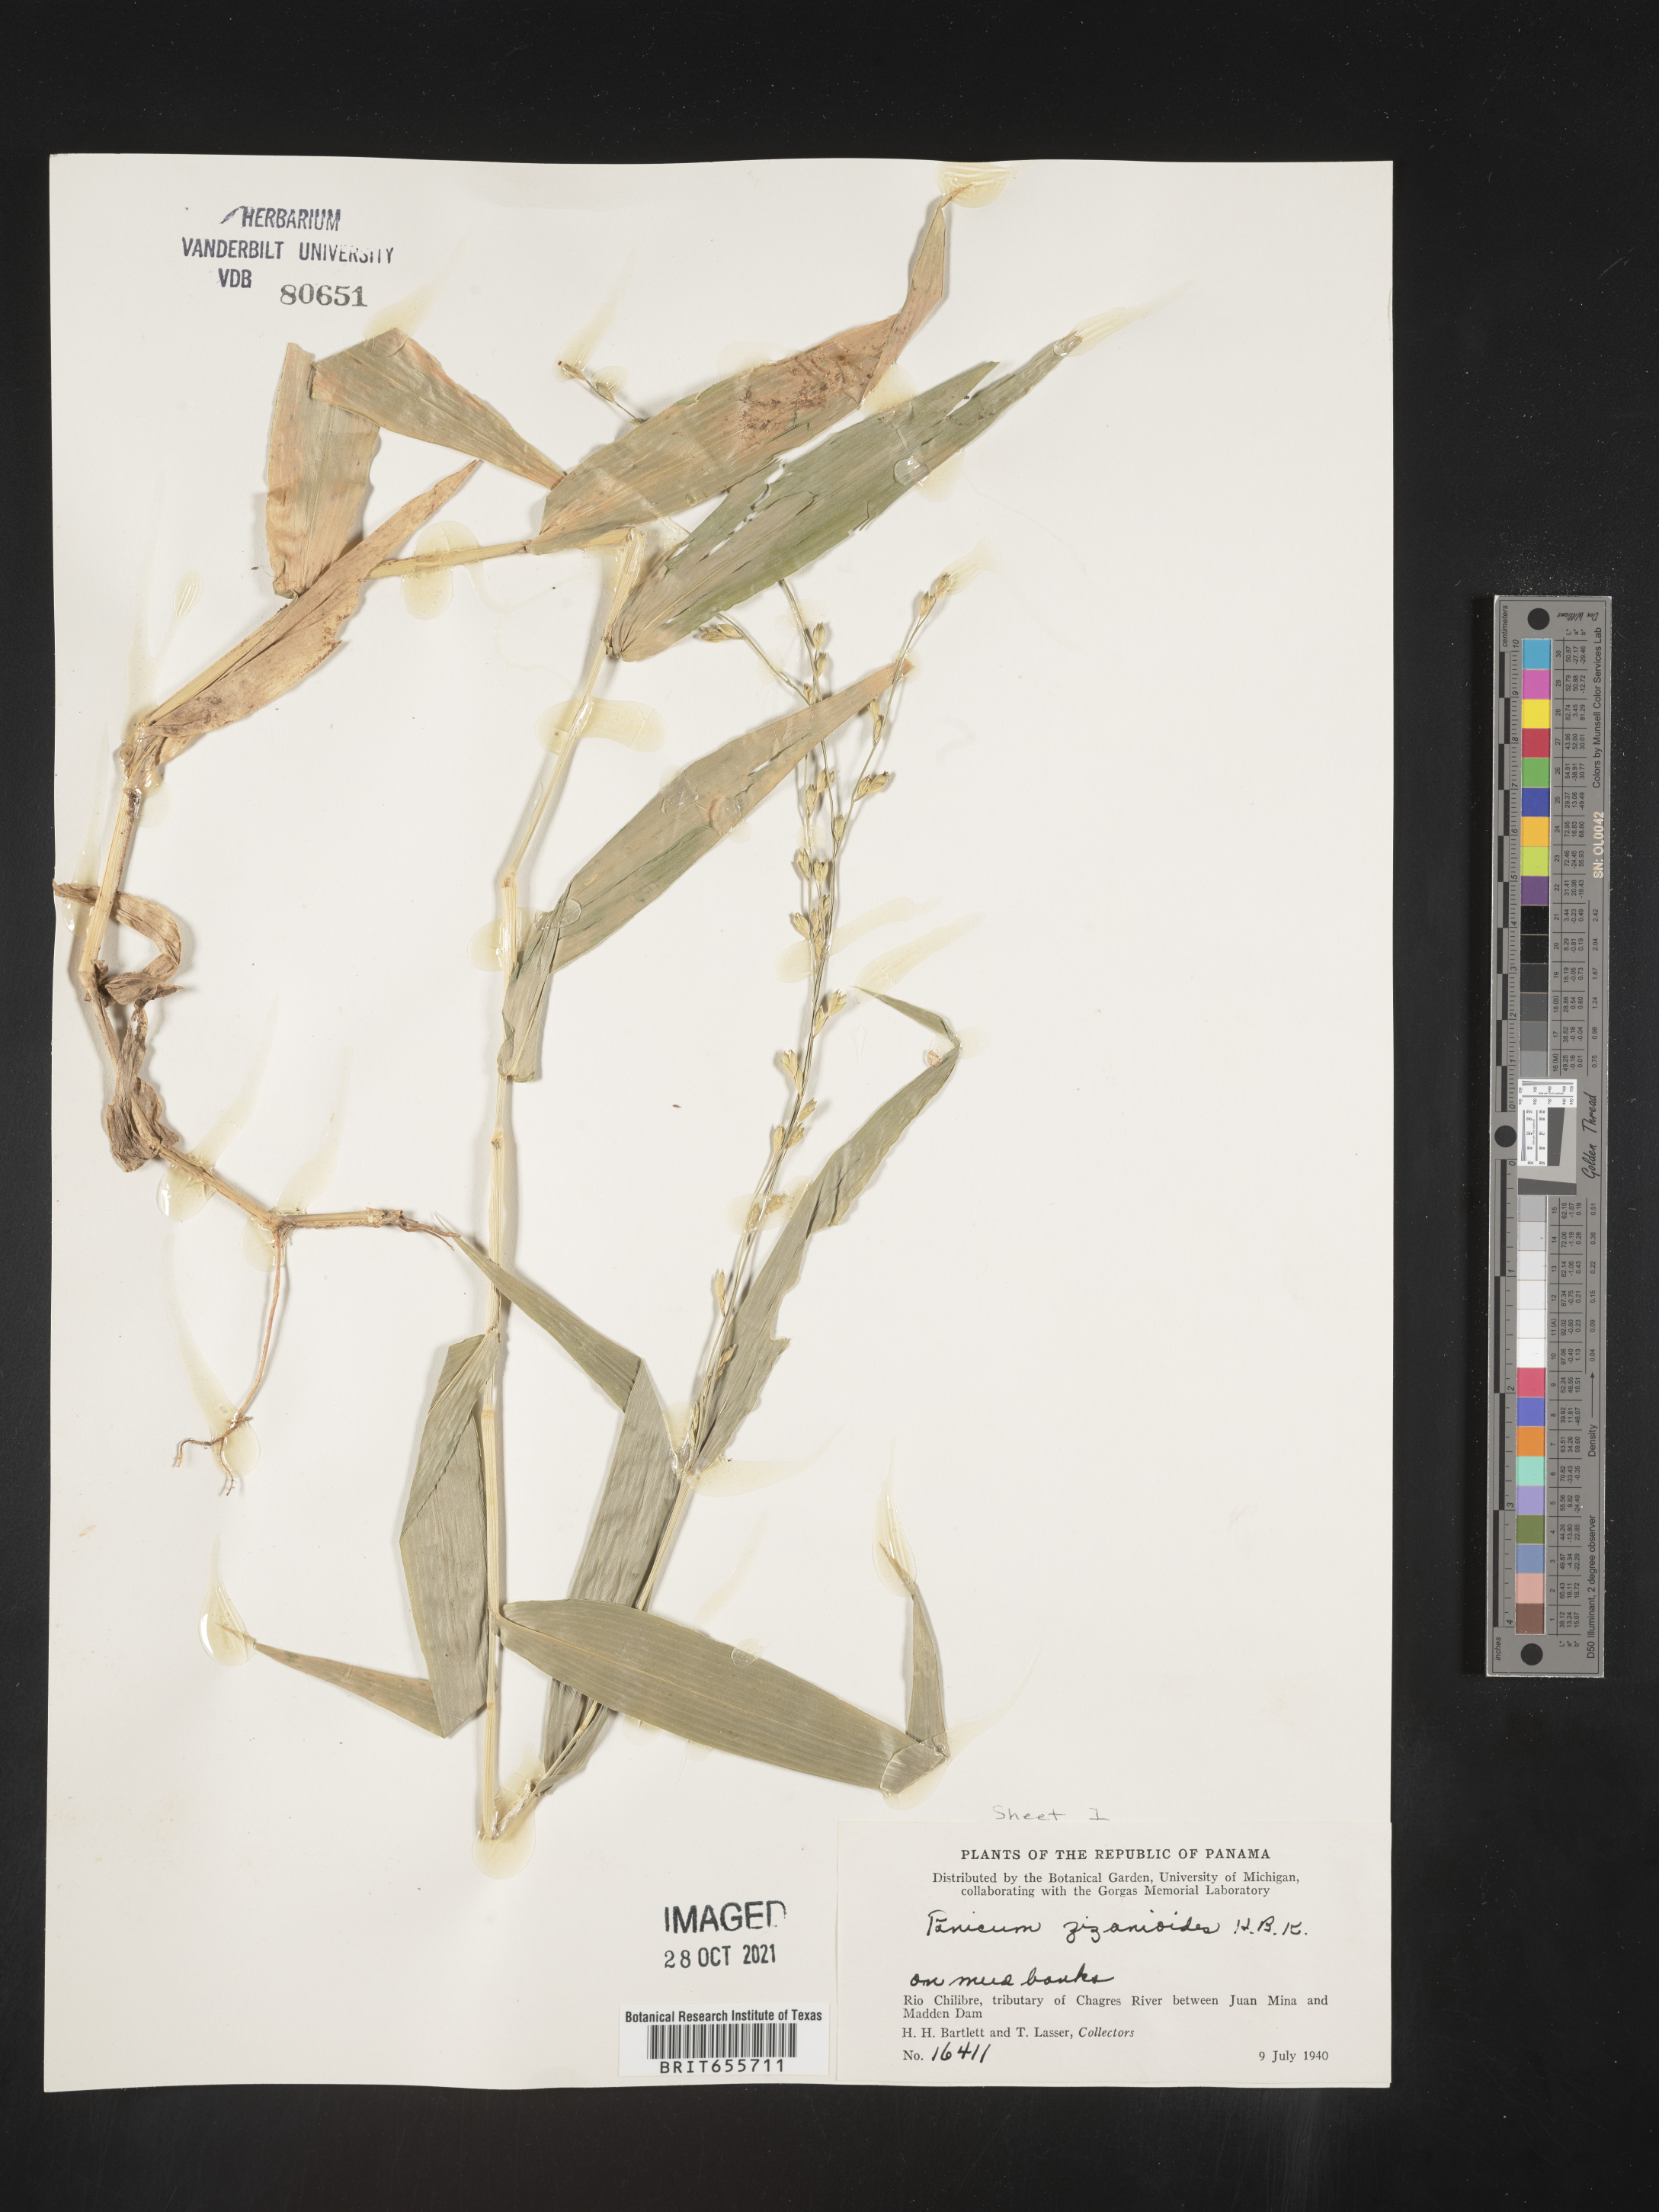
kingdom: Plantae
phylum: Tracheophyta
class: Liliopsida
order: Poales
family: Poaceae
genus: Panicum
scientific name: Panicum
